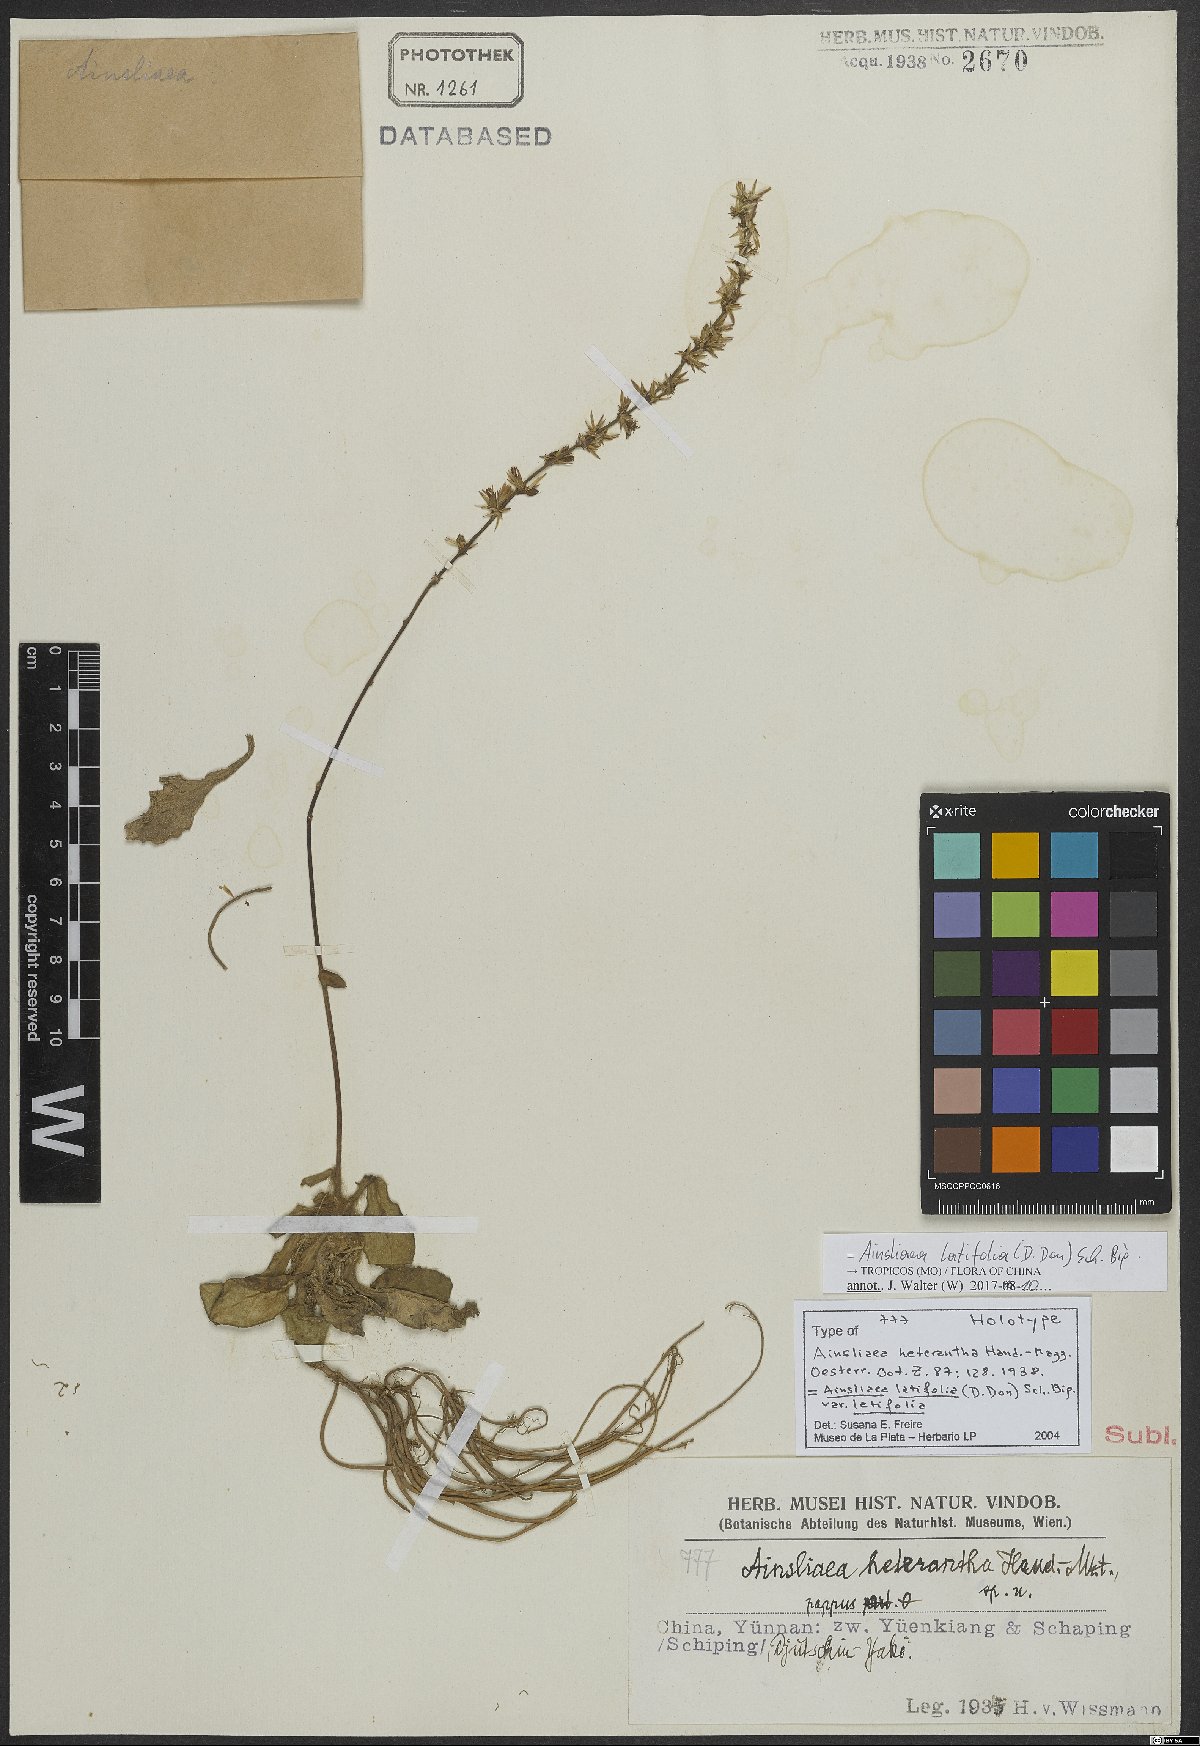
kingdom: Plantae
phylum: Tracheophyta
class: Magnoliopsida
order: Asterales
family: Asteraceae
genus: Ainsliaea
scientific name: Ainsliaea latifolia
